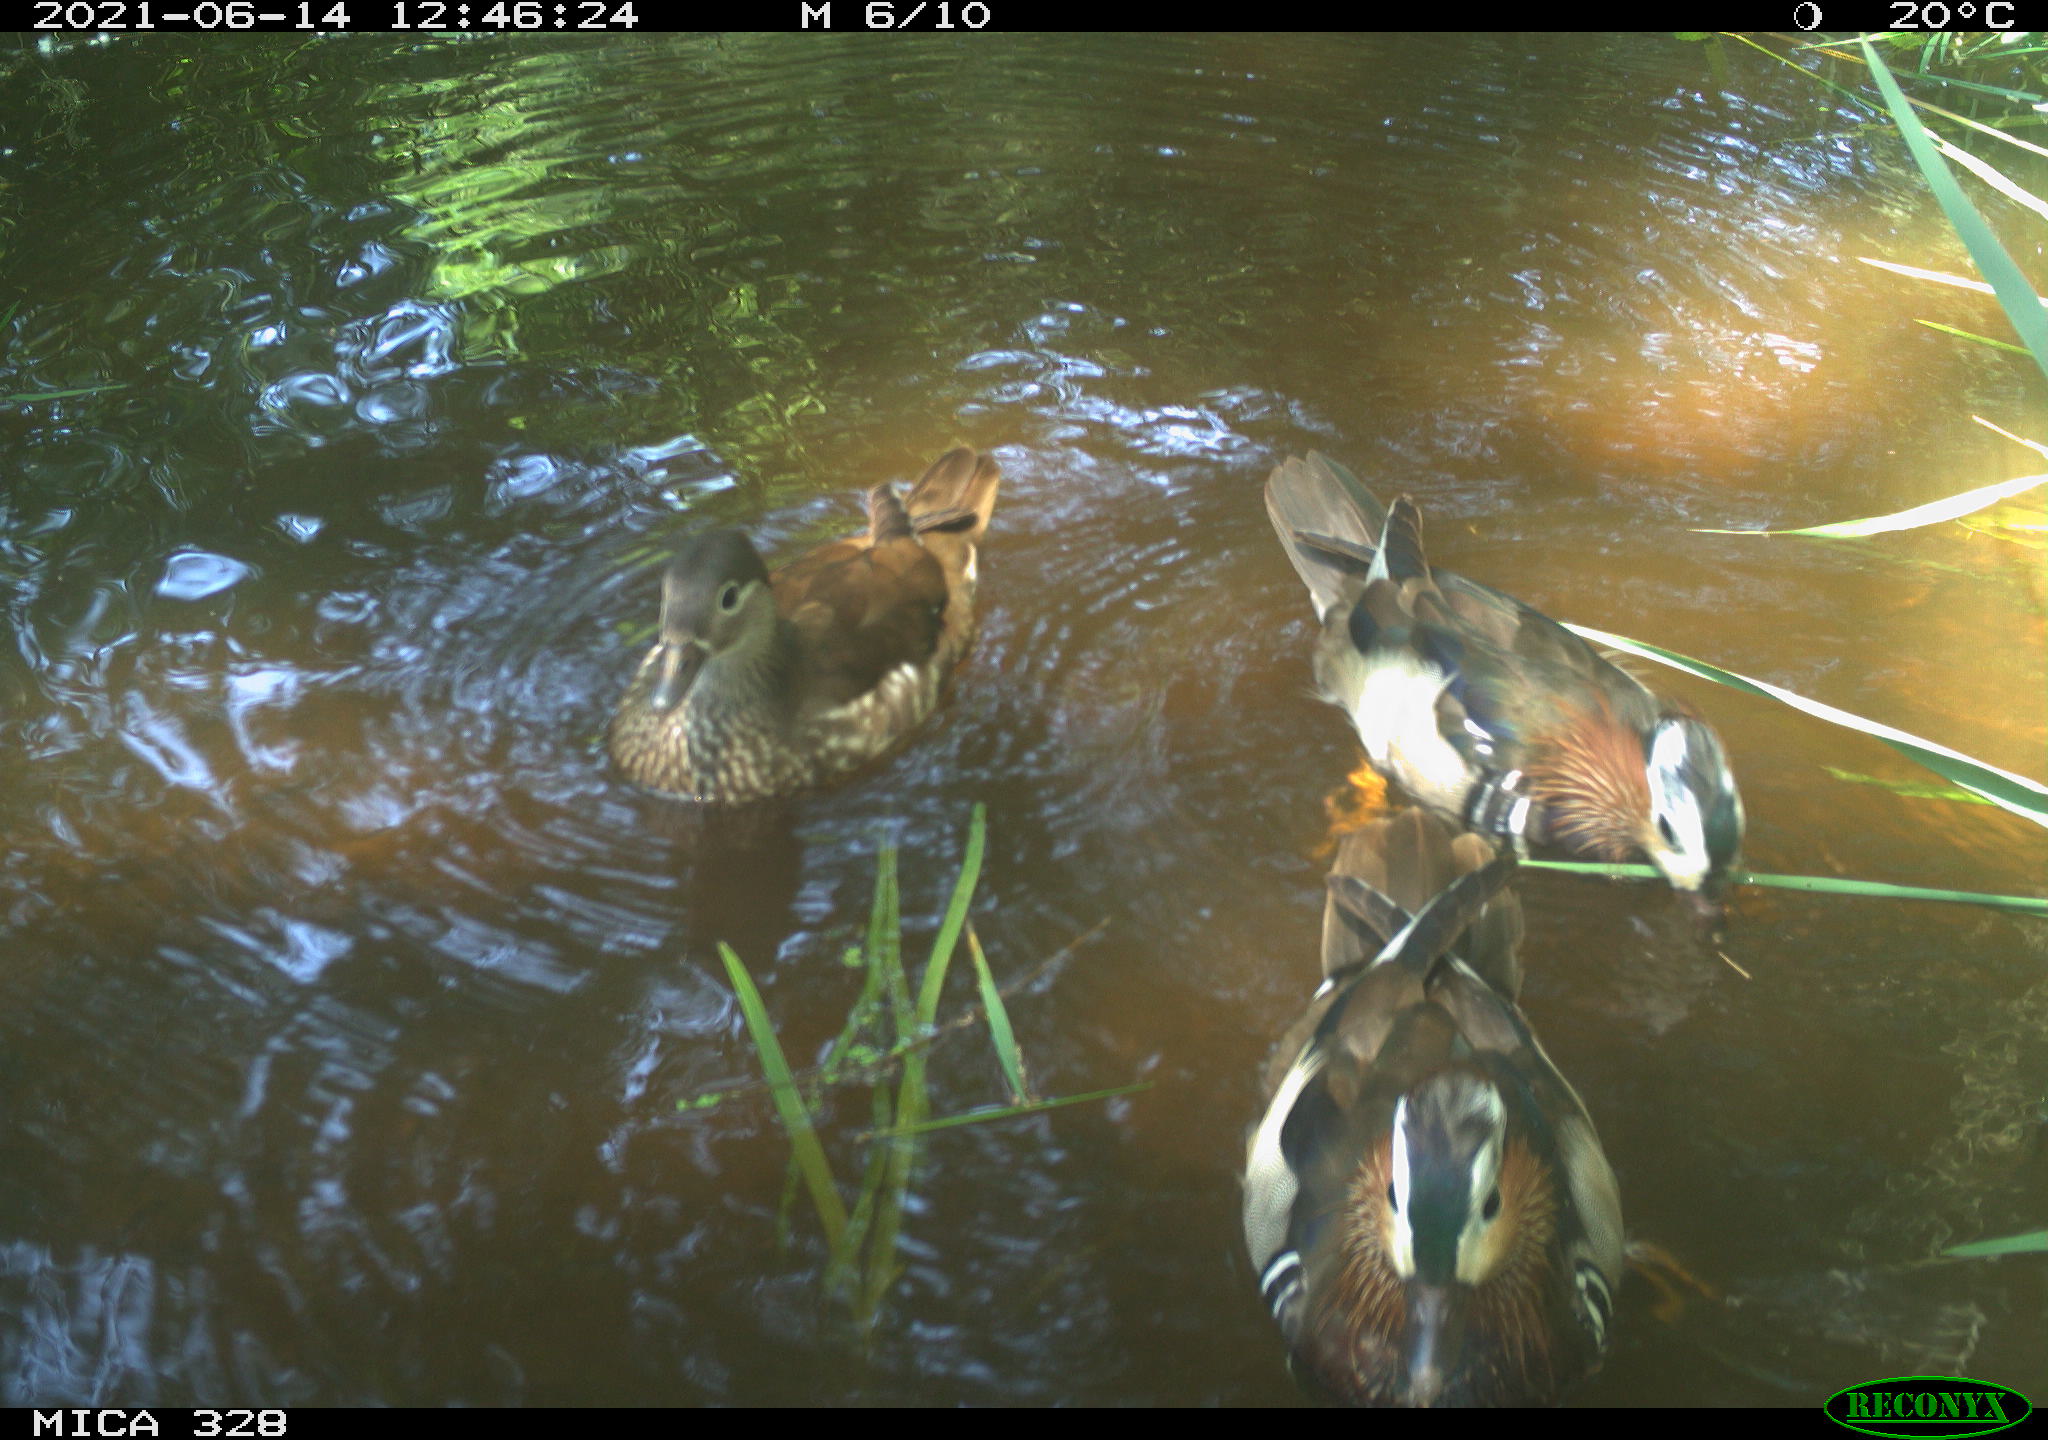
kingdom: Animalia
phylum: Chordata
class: Aves
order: Anseriformes
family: Anatidae
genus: Aix
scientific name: Aix galericulata
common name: Mandarin duck
